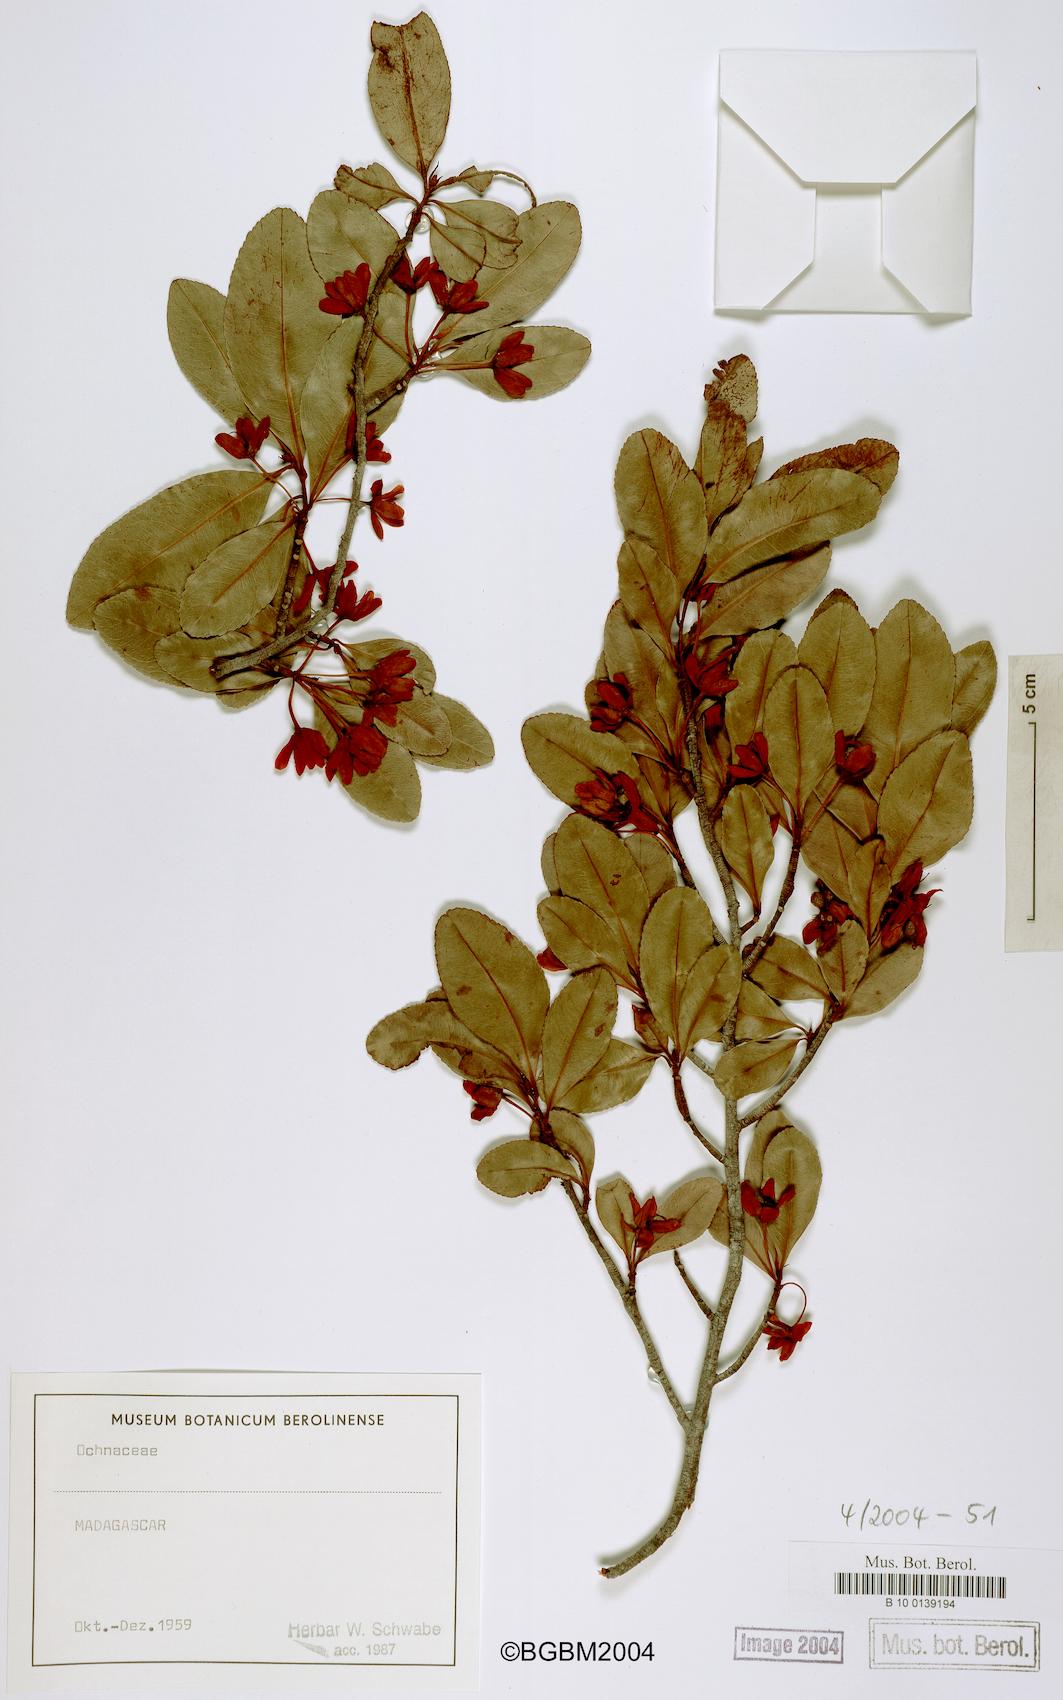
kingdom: Plantae
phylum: Tracheophyta
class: Magnoliopsida
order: Malpighiales
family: Ochnaceae
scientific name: Ochnaceae
